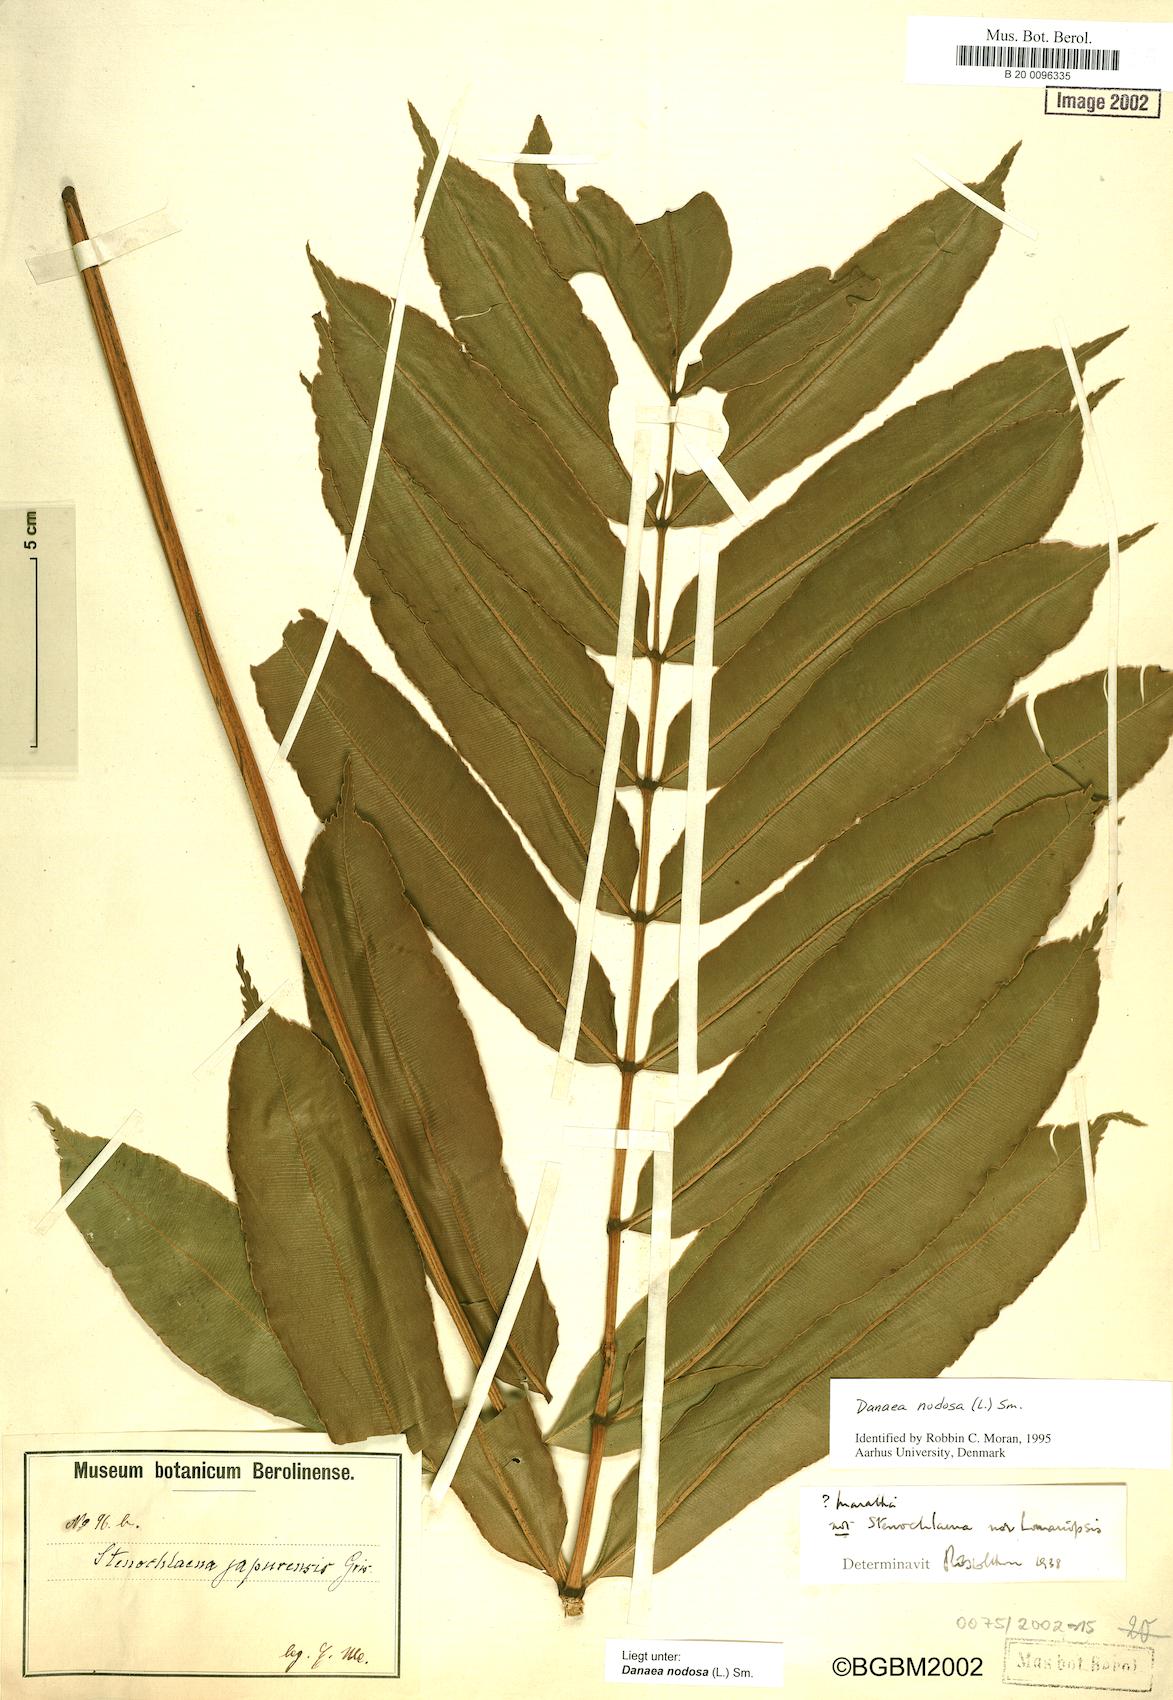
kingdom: Plantae
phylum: Tracheophyta
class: Polypodiopsida
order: Marattiales
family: Marattiaceae
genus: Danaea
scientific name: Danaea nodosa
